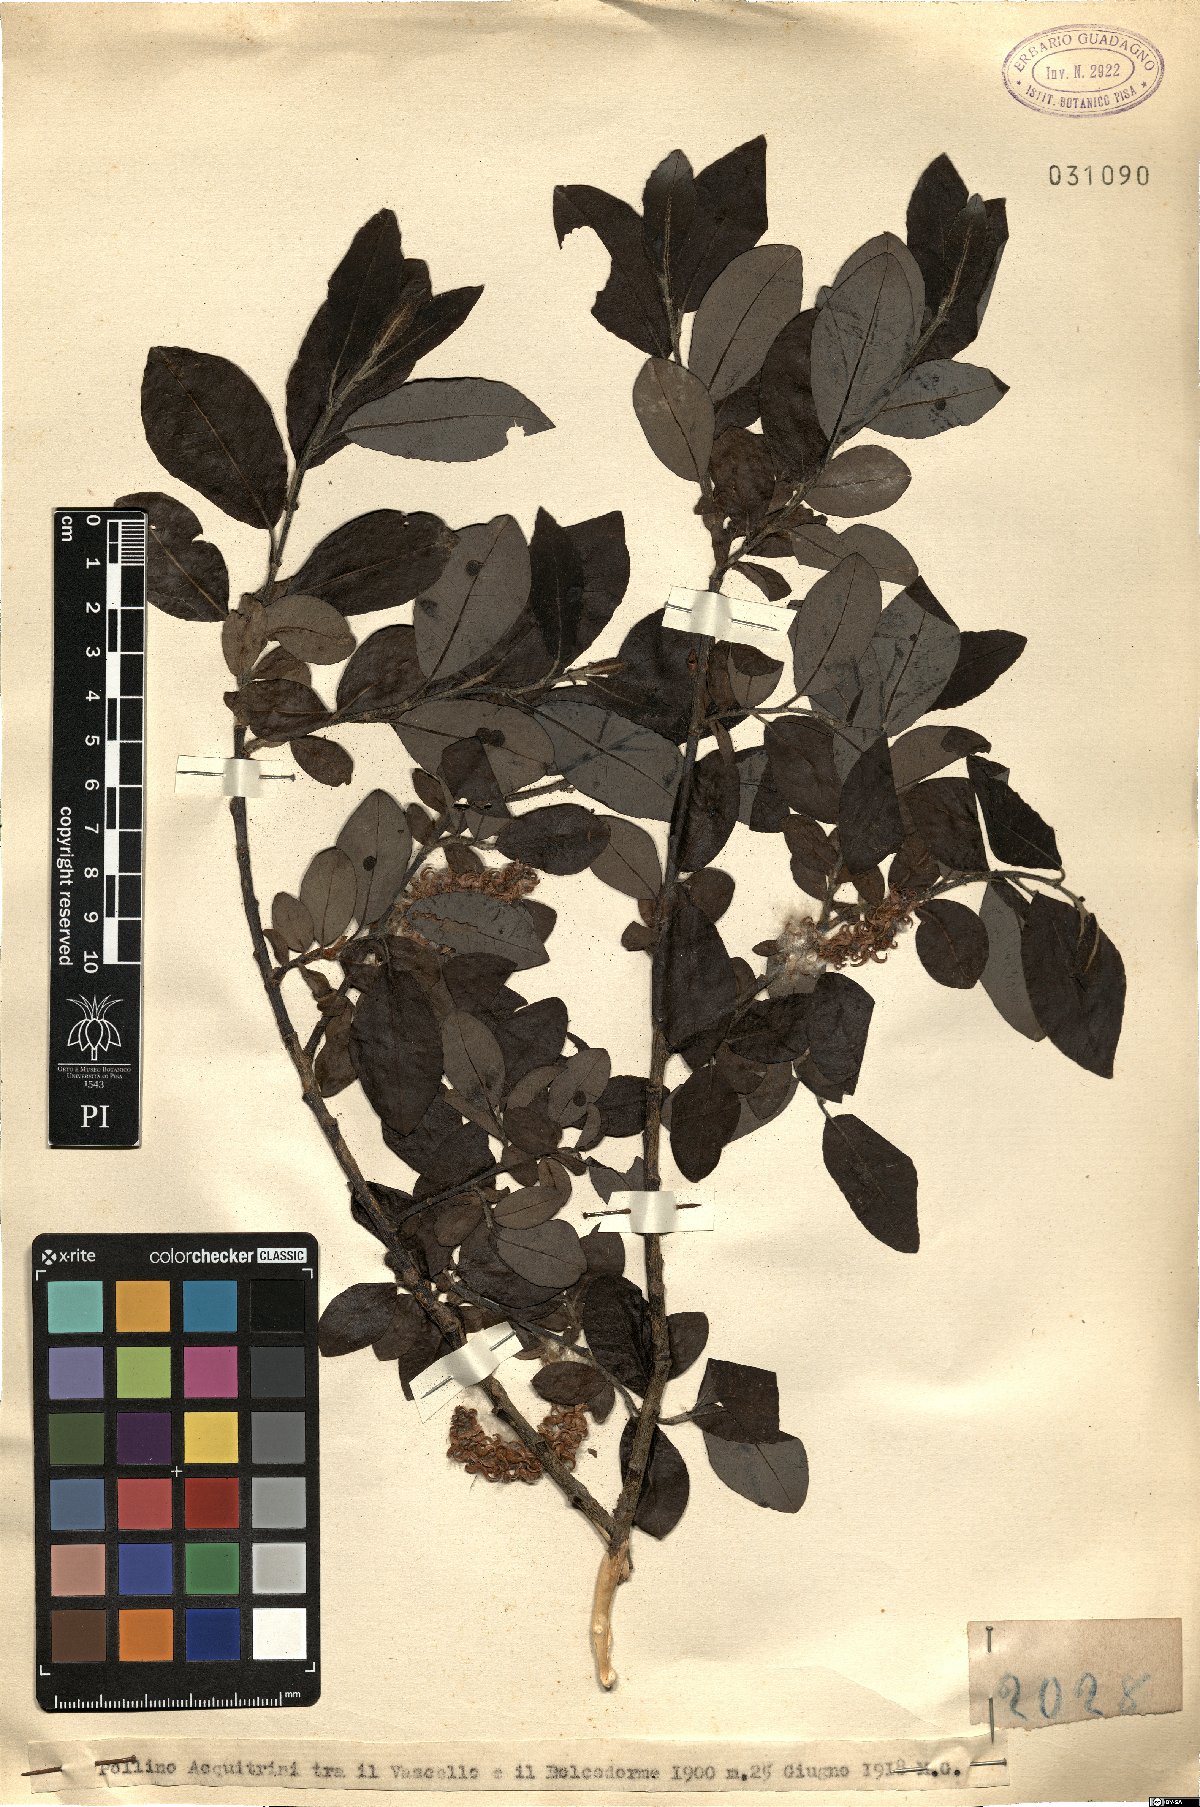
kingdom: Plantae
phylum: Tracheophyta
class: Magnoliopsida
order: Malpighiales
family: Salicaceae
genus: Salix
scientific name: Salix
